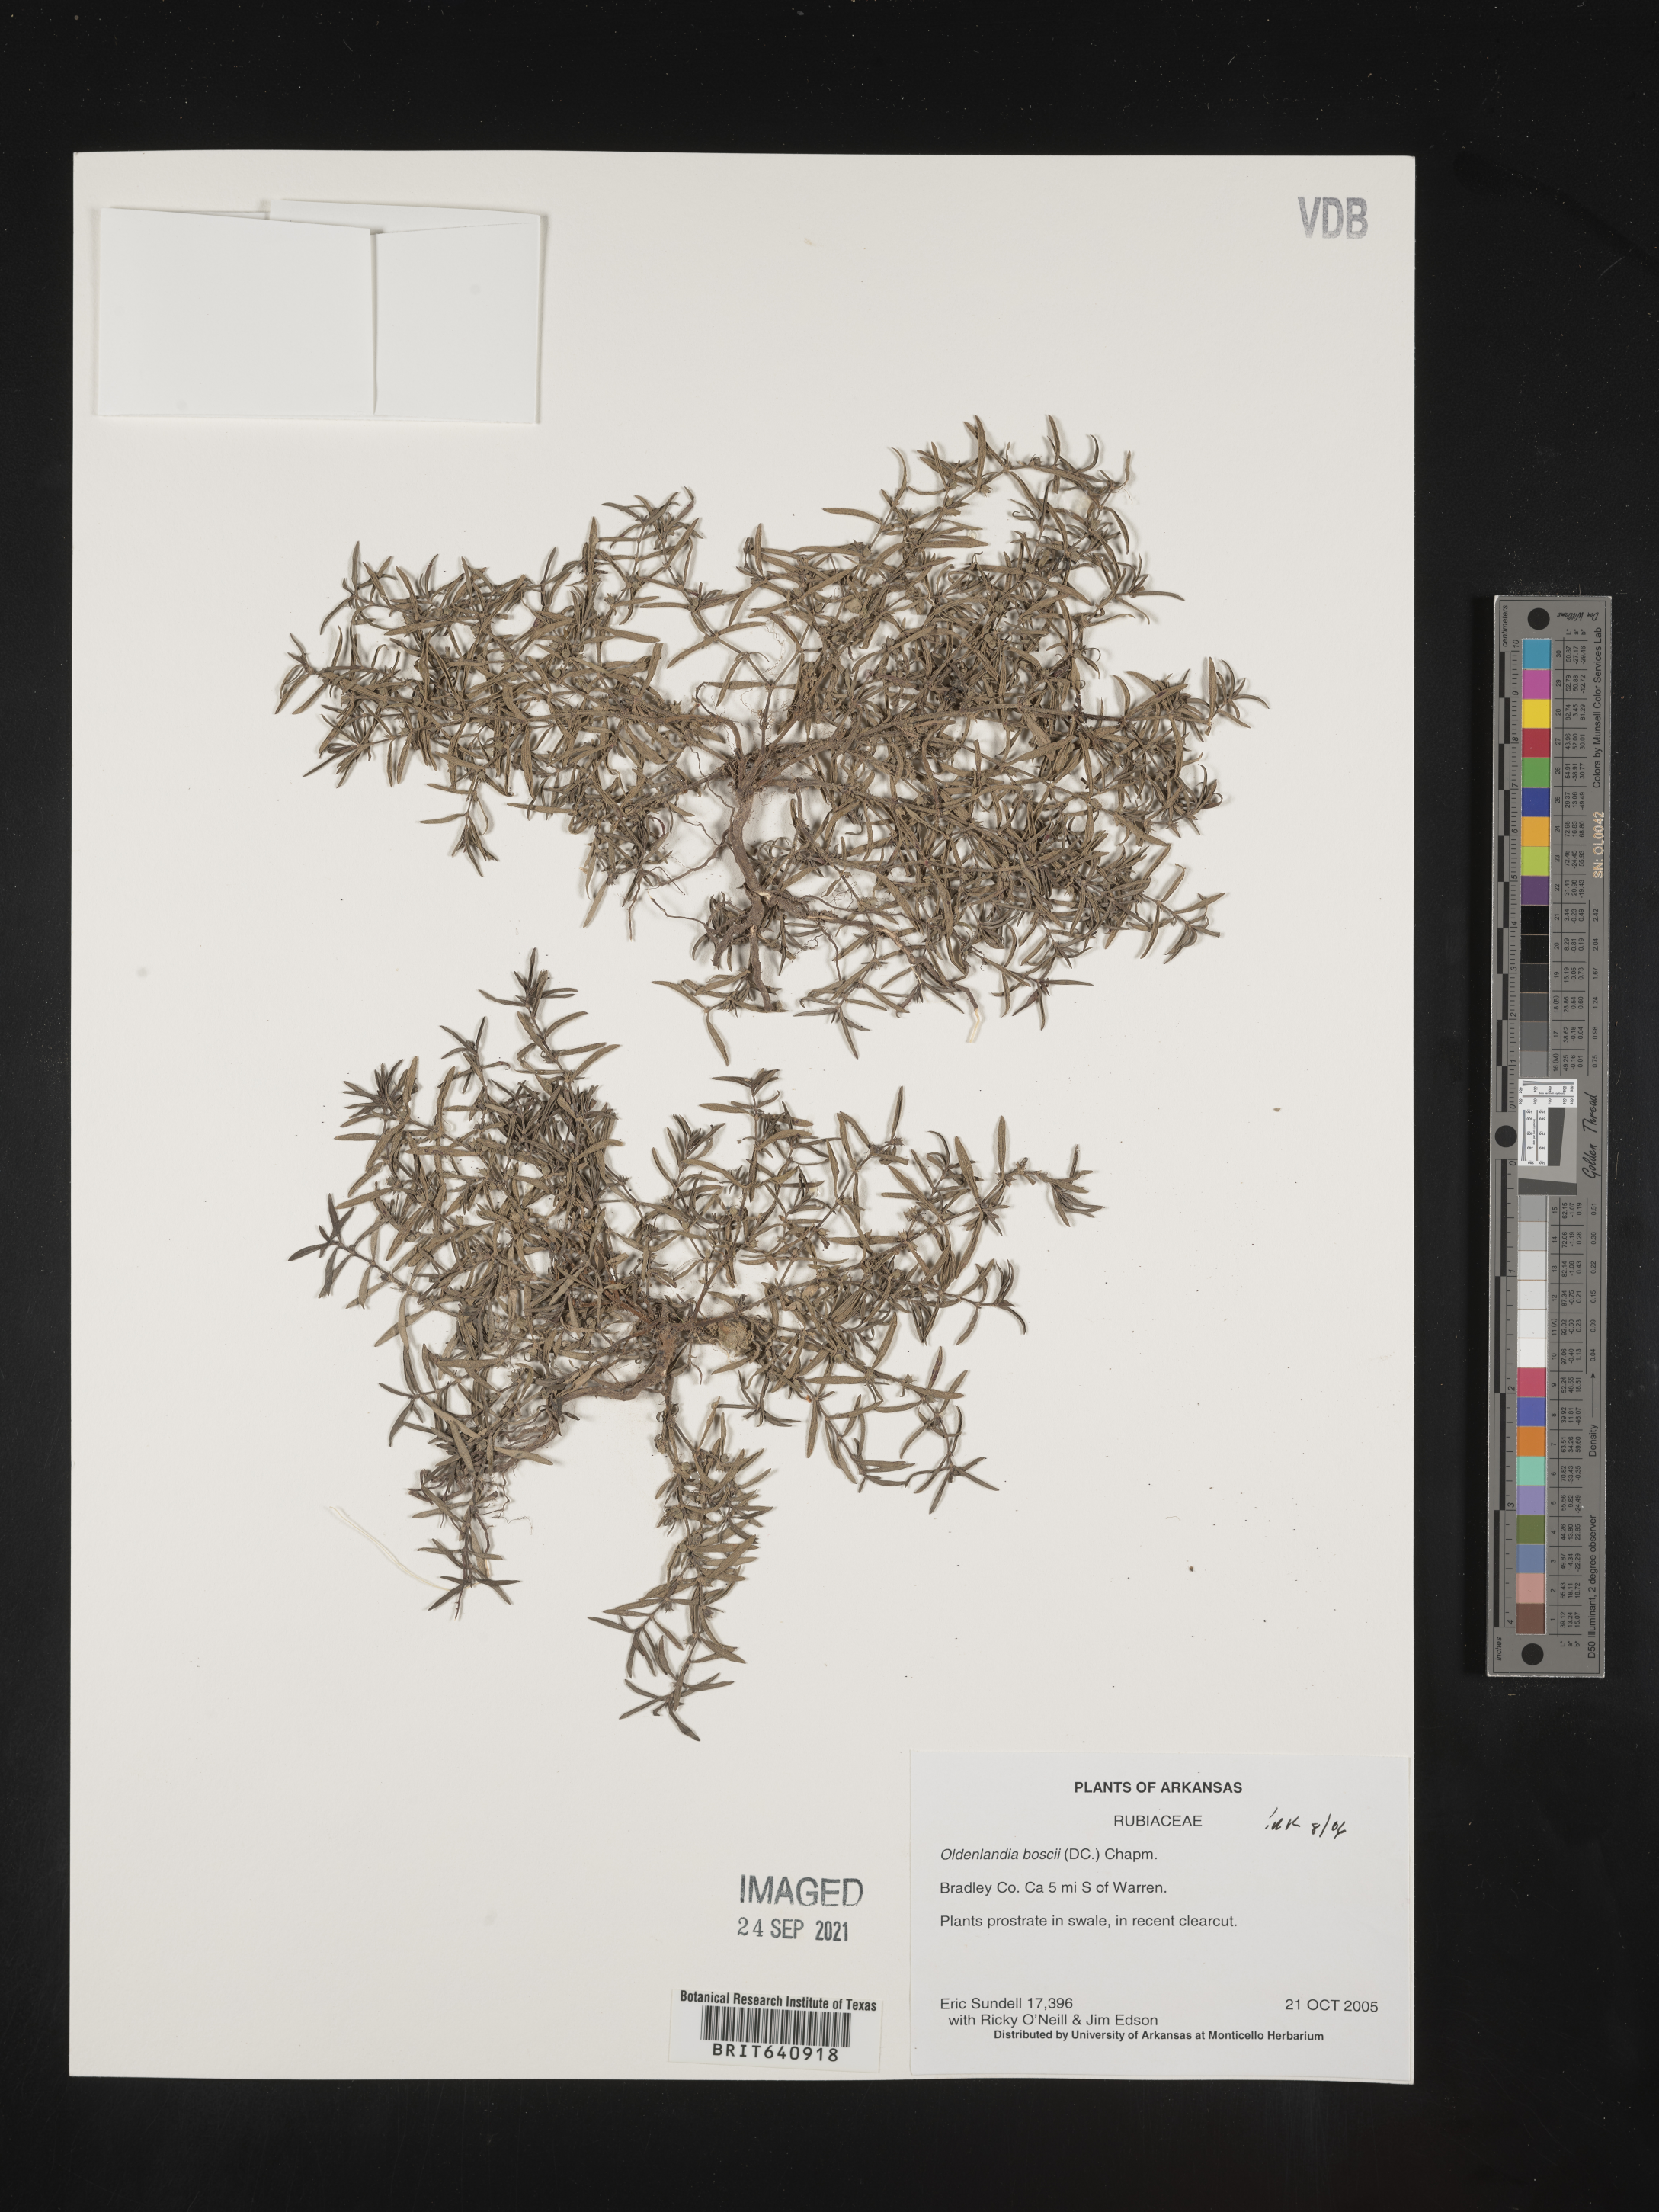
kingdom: Plantae
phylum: Tracheophyta
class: Magnoliopsida
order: Gentianales
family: Rubiaceae
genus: Oldenlandia
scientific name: Oldenlandia boscii
